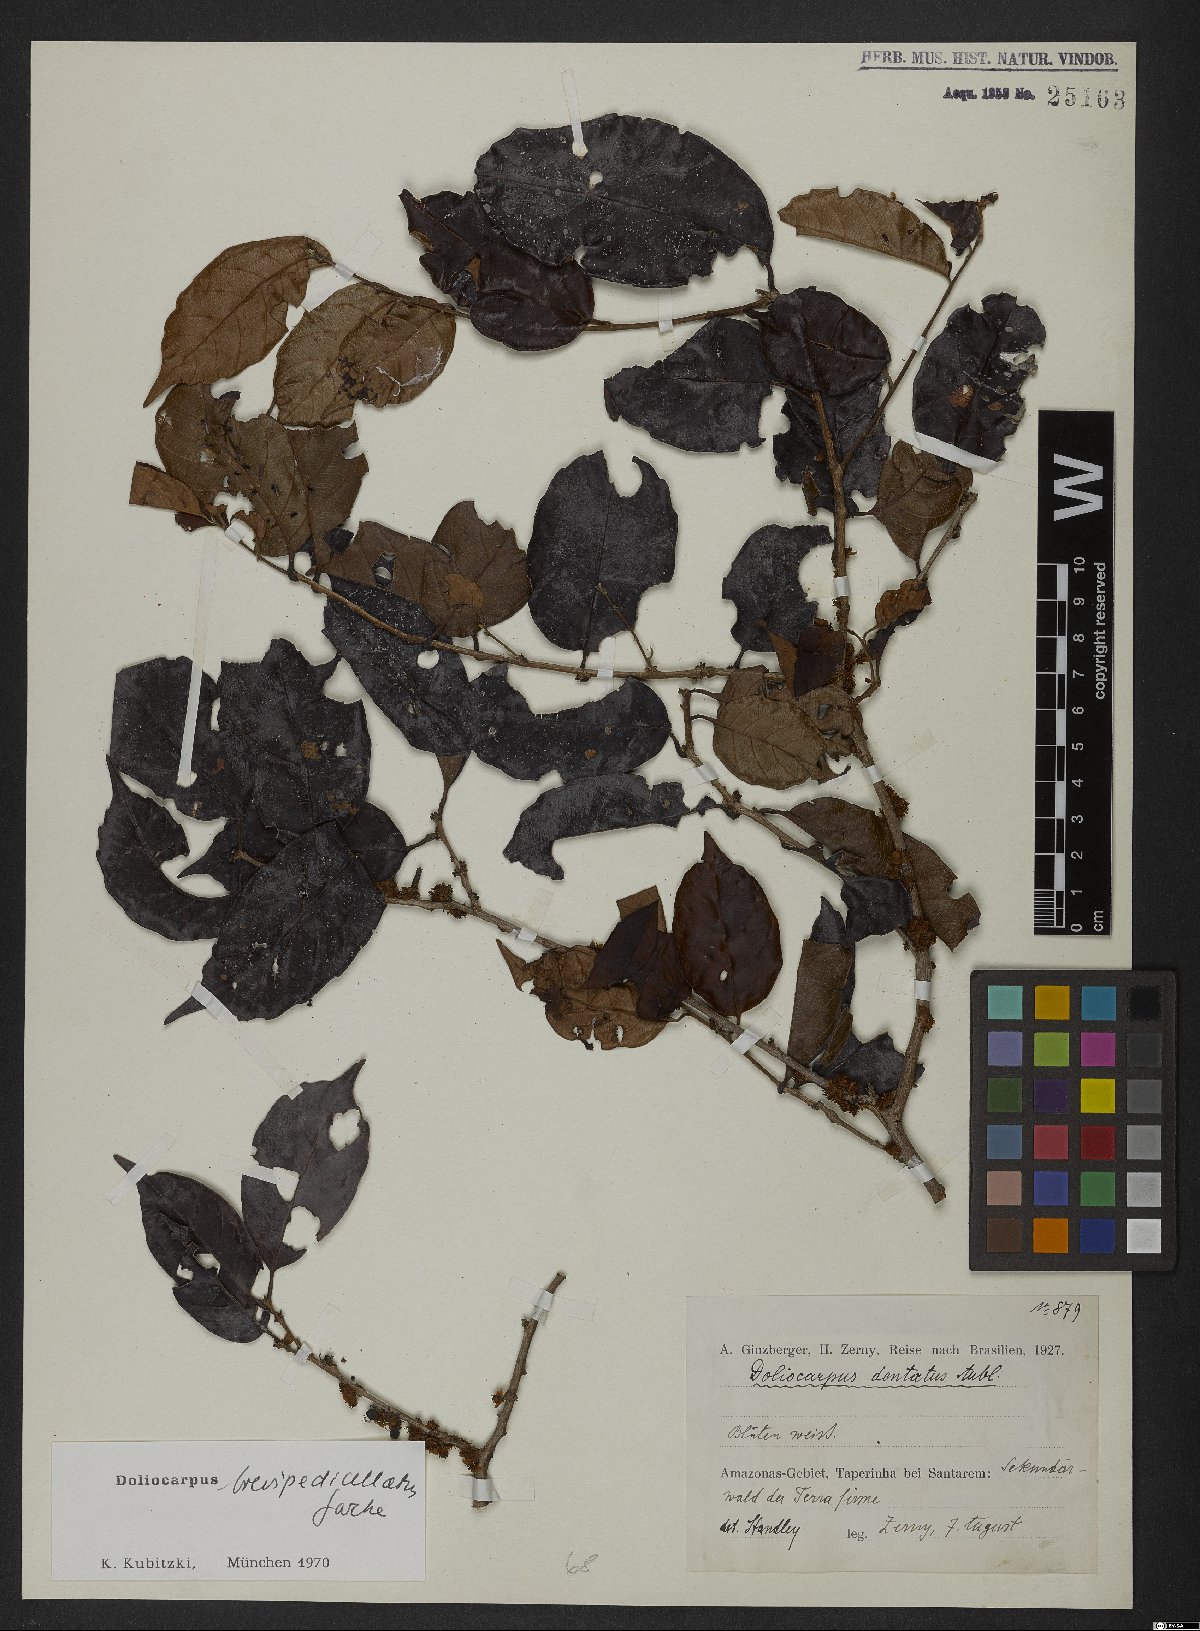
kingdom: Plantae
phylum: Tracheophyta
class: Magnoliopsida
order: Dilleniales
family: Dilleniaceae
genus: Doliocarpus
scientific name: Doliocarpus brevipedicellatus
